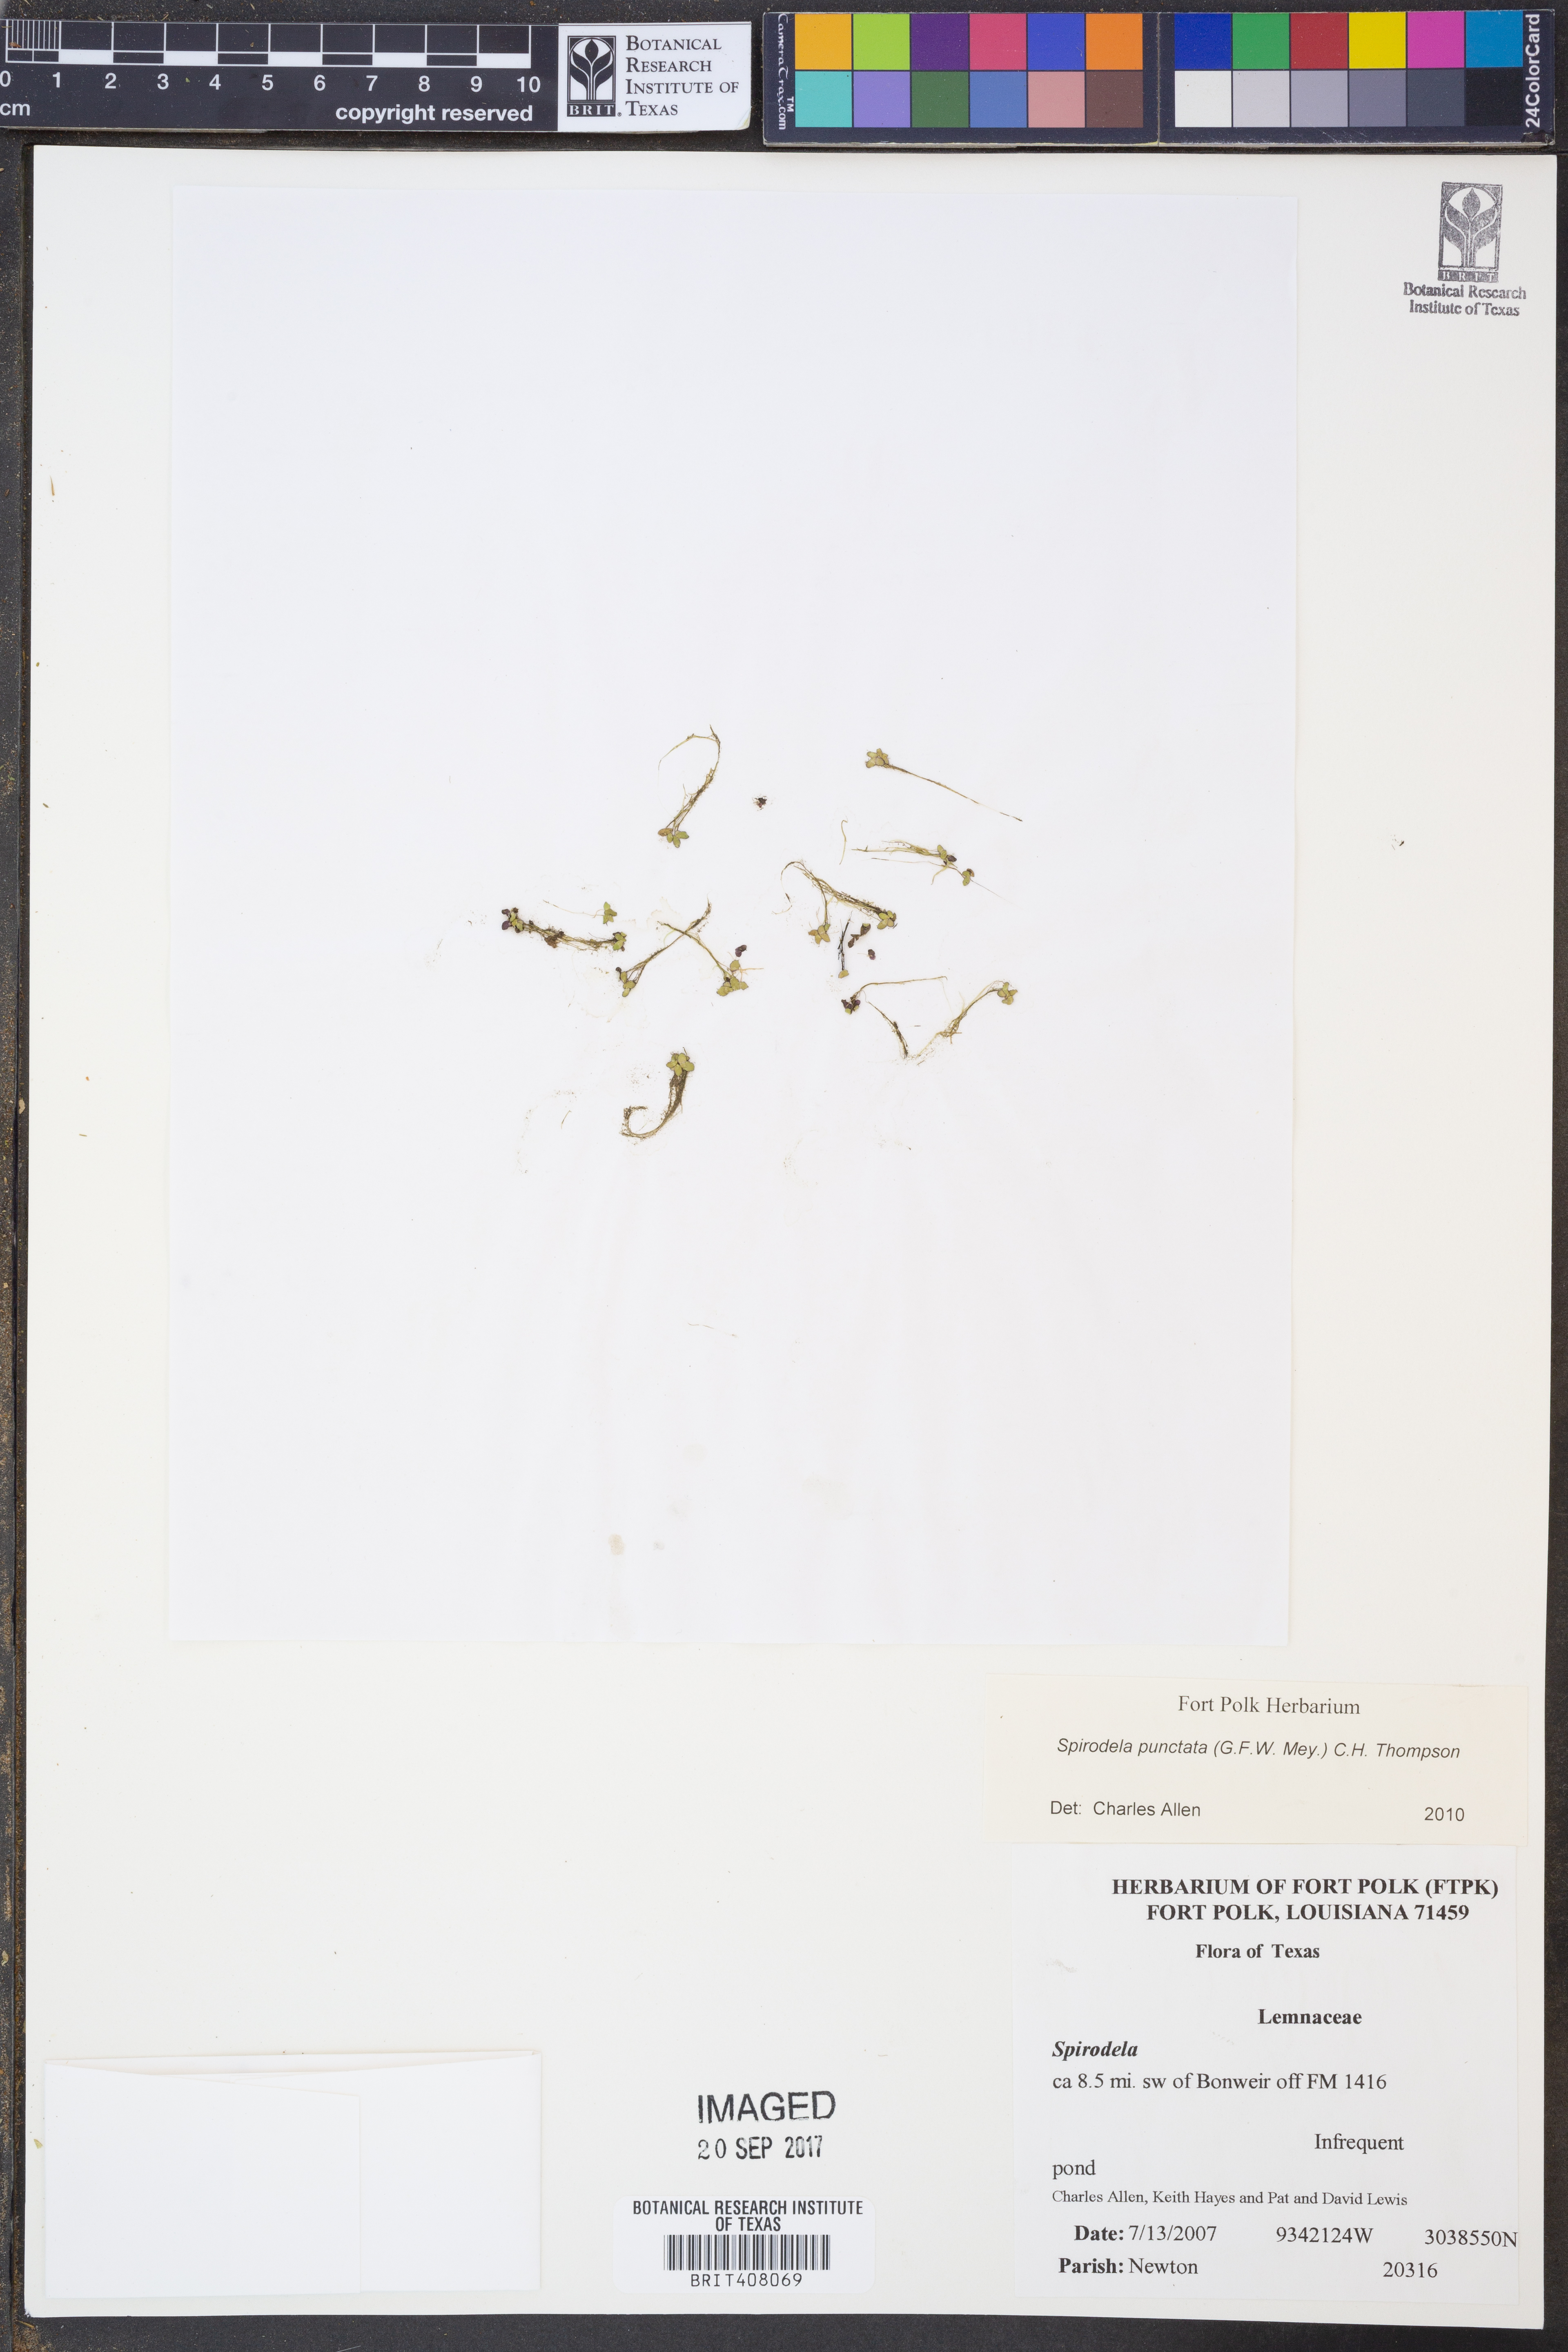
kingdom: Plantae
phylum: Tracheophyta
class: Liliopsida
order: Alismatales
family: Araceae
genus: Spirodela
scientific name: Spirodela punctata
